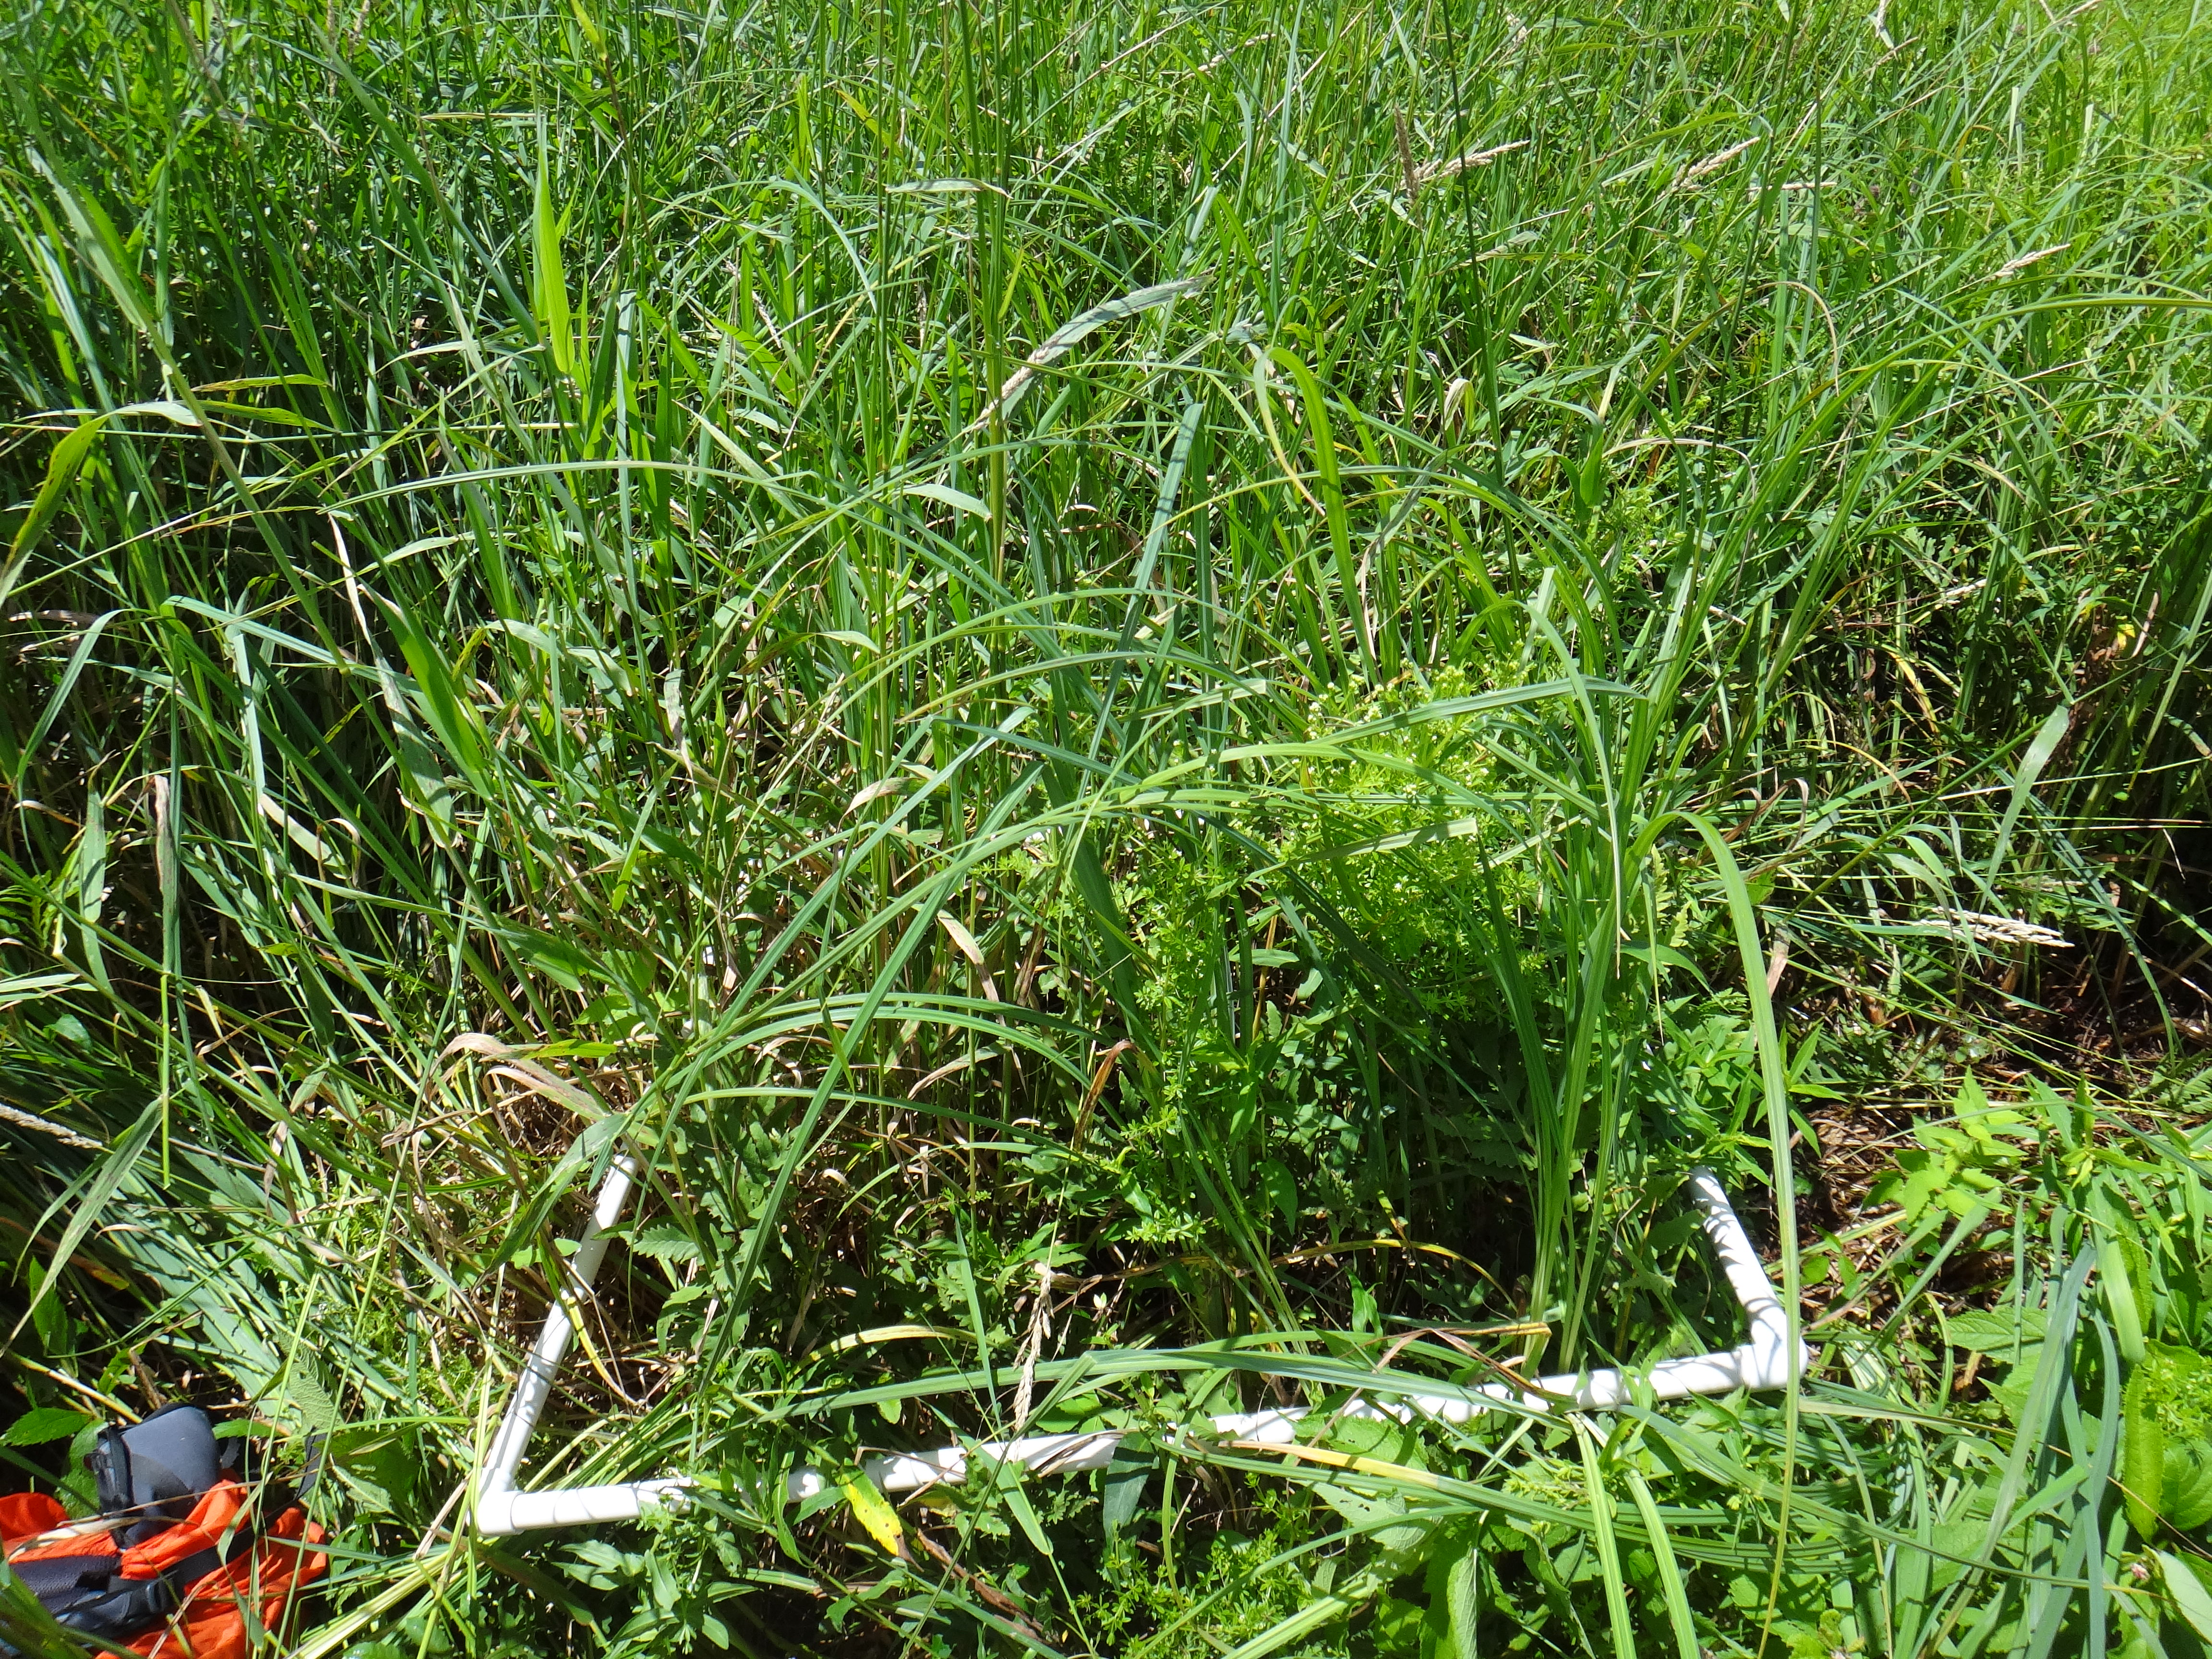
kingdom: Plantae
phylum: Tracheophyta
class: Magnoliopsida
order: Gentianales
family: Rubiaceae
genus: Galium
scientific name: Galium asprellum
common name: Rough bedstraw
